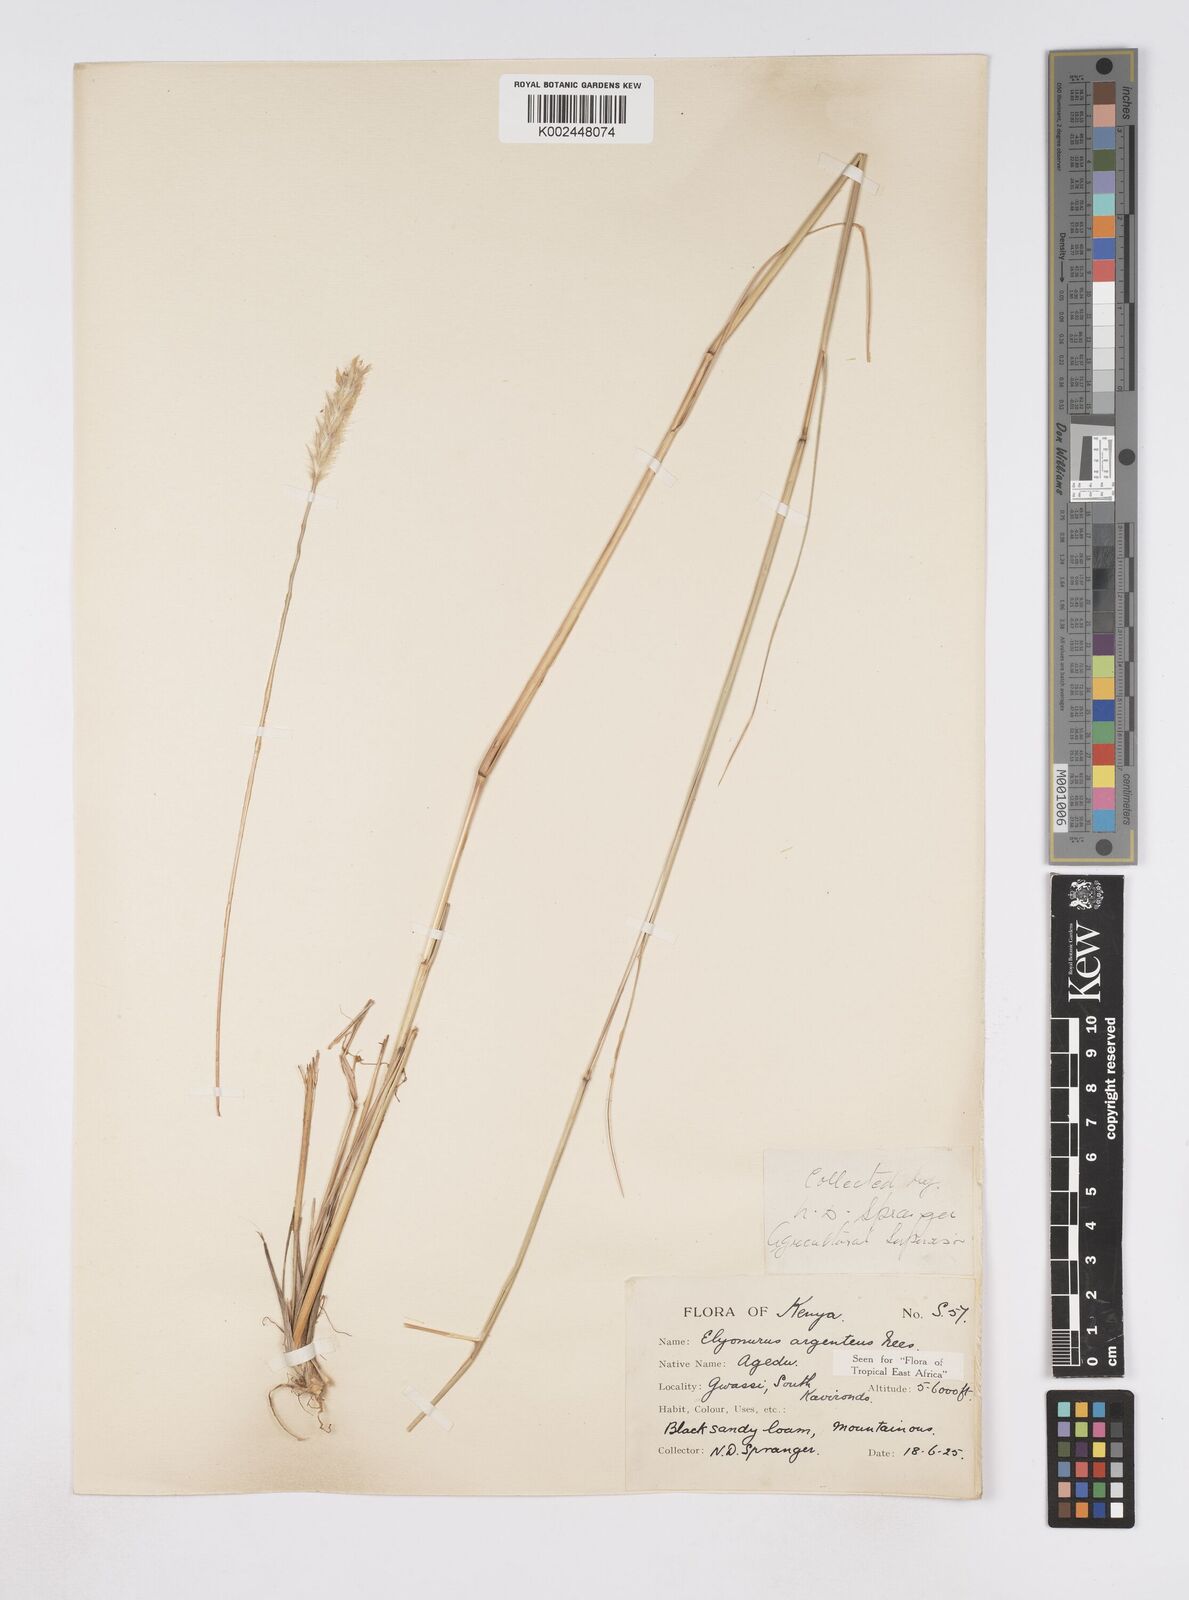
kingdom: Plantae
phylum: Tracheophyta
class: Liliopsida
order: Poales
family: Poaceae
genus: Elionurus
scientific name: Elionurus muticus
